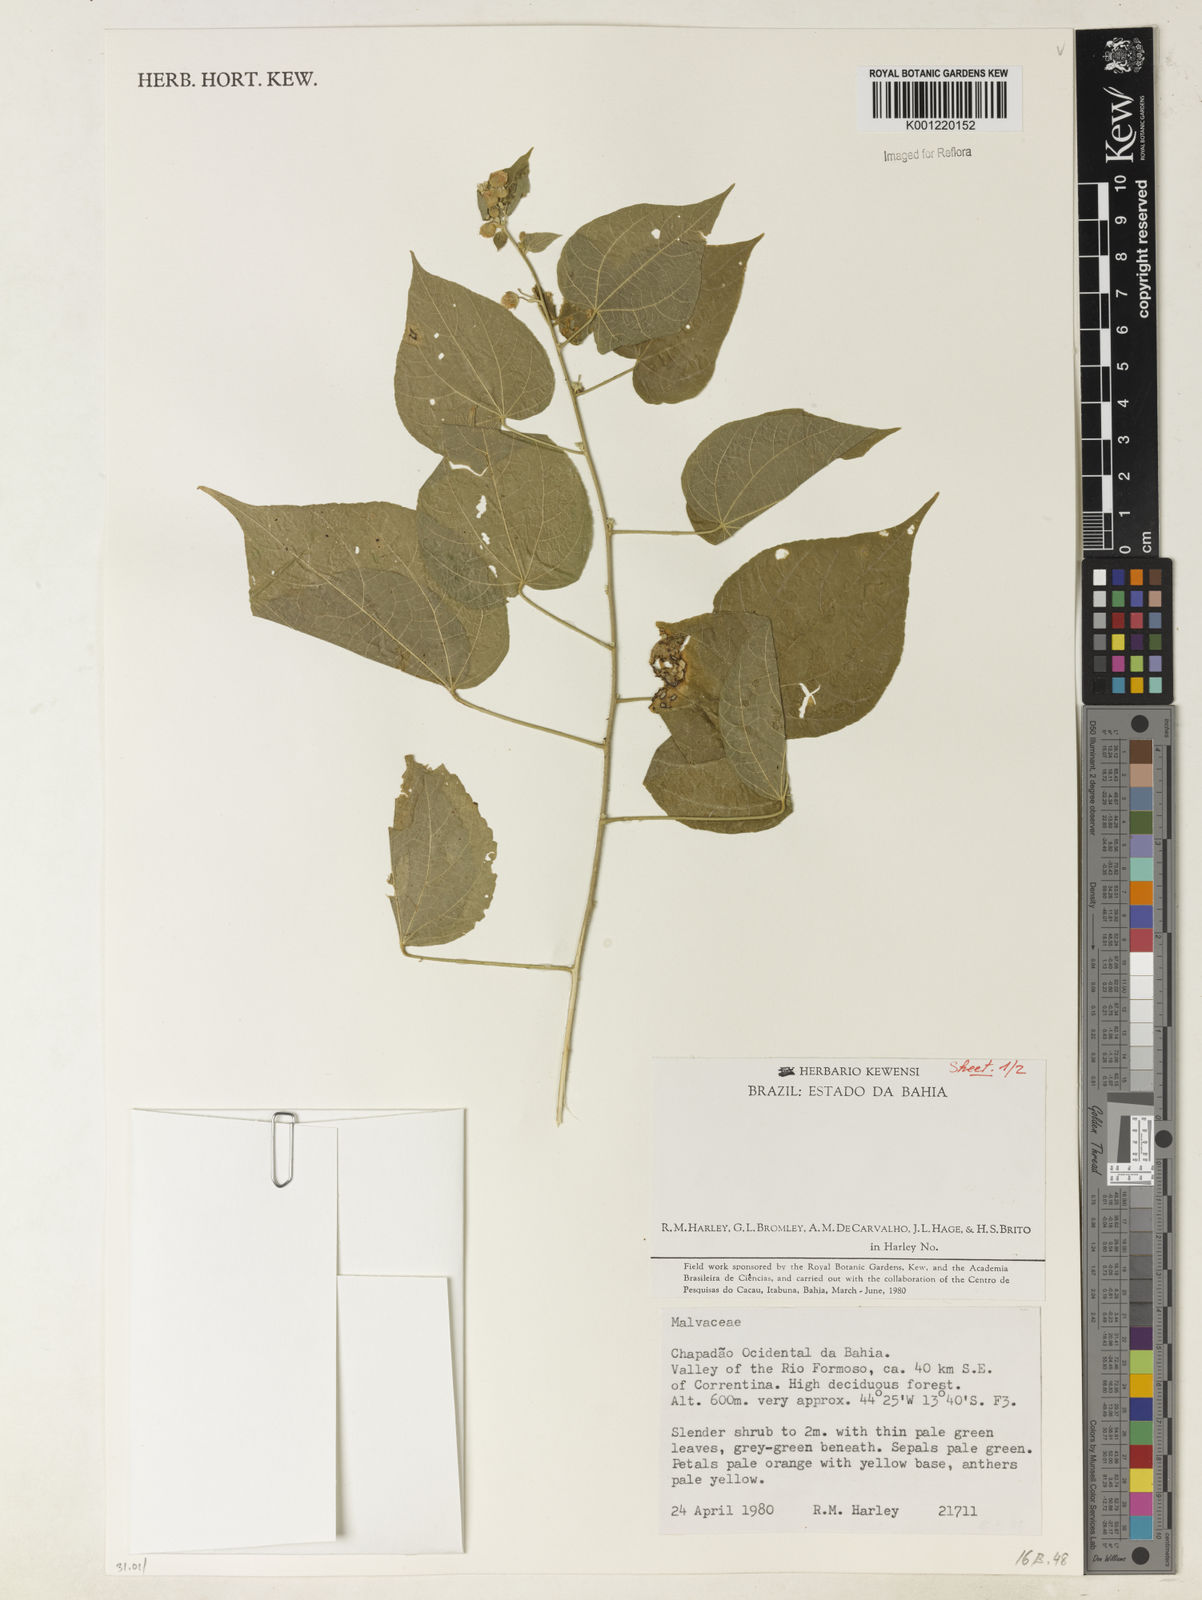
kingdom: Plantae
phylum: Tracheophyta
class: Magnoliopsida
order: Malvales
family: Malvaceae
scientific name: Malvaceae
